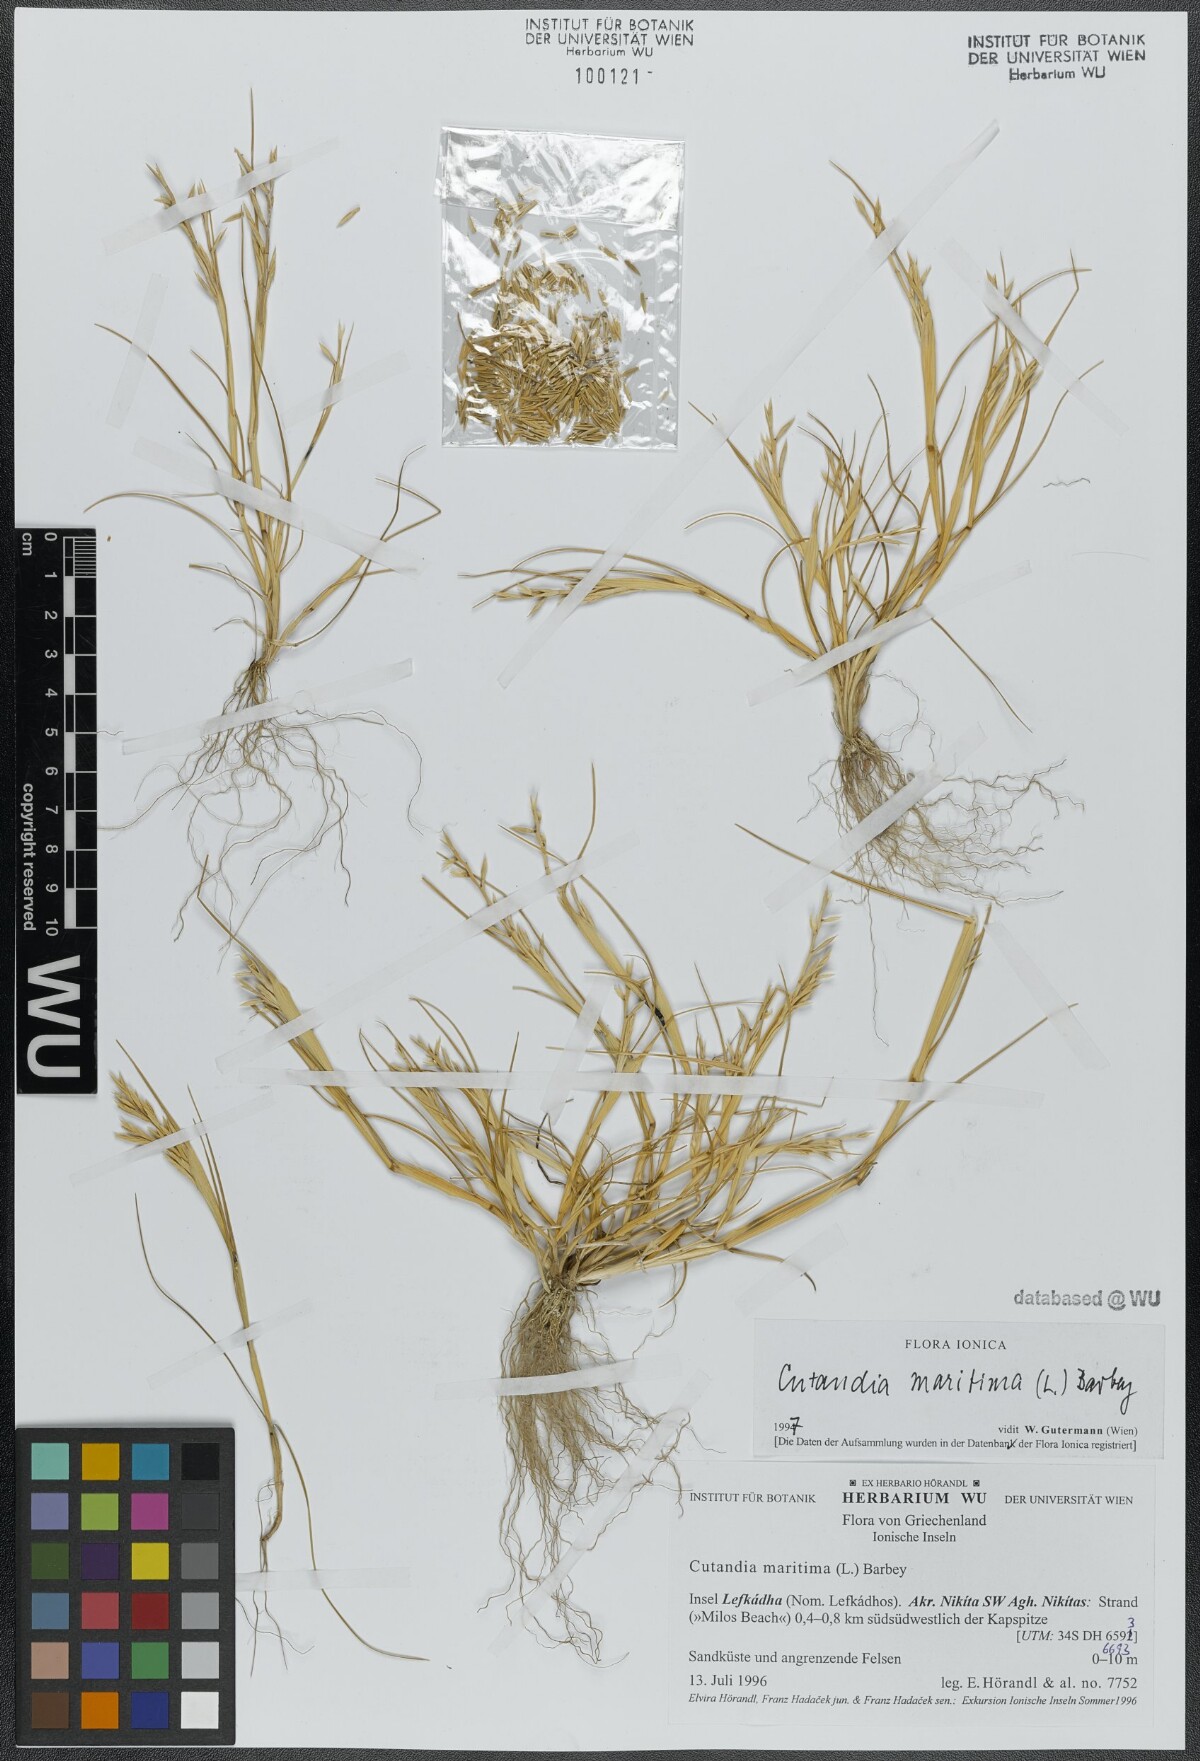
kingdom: Plantae
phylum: Tracheophyta
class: Liliopsida
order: Poales
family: Poaceae
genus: Cutandia
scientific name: Cutandia maritima
